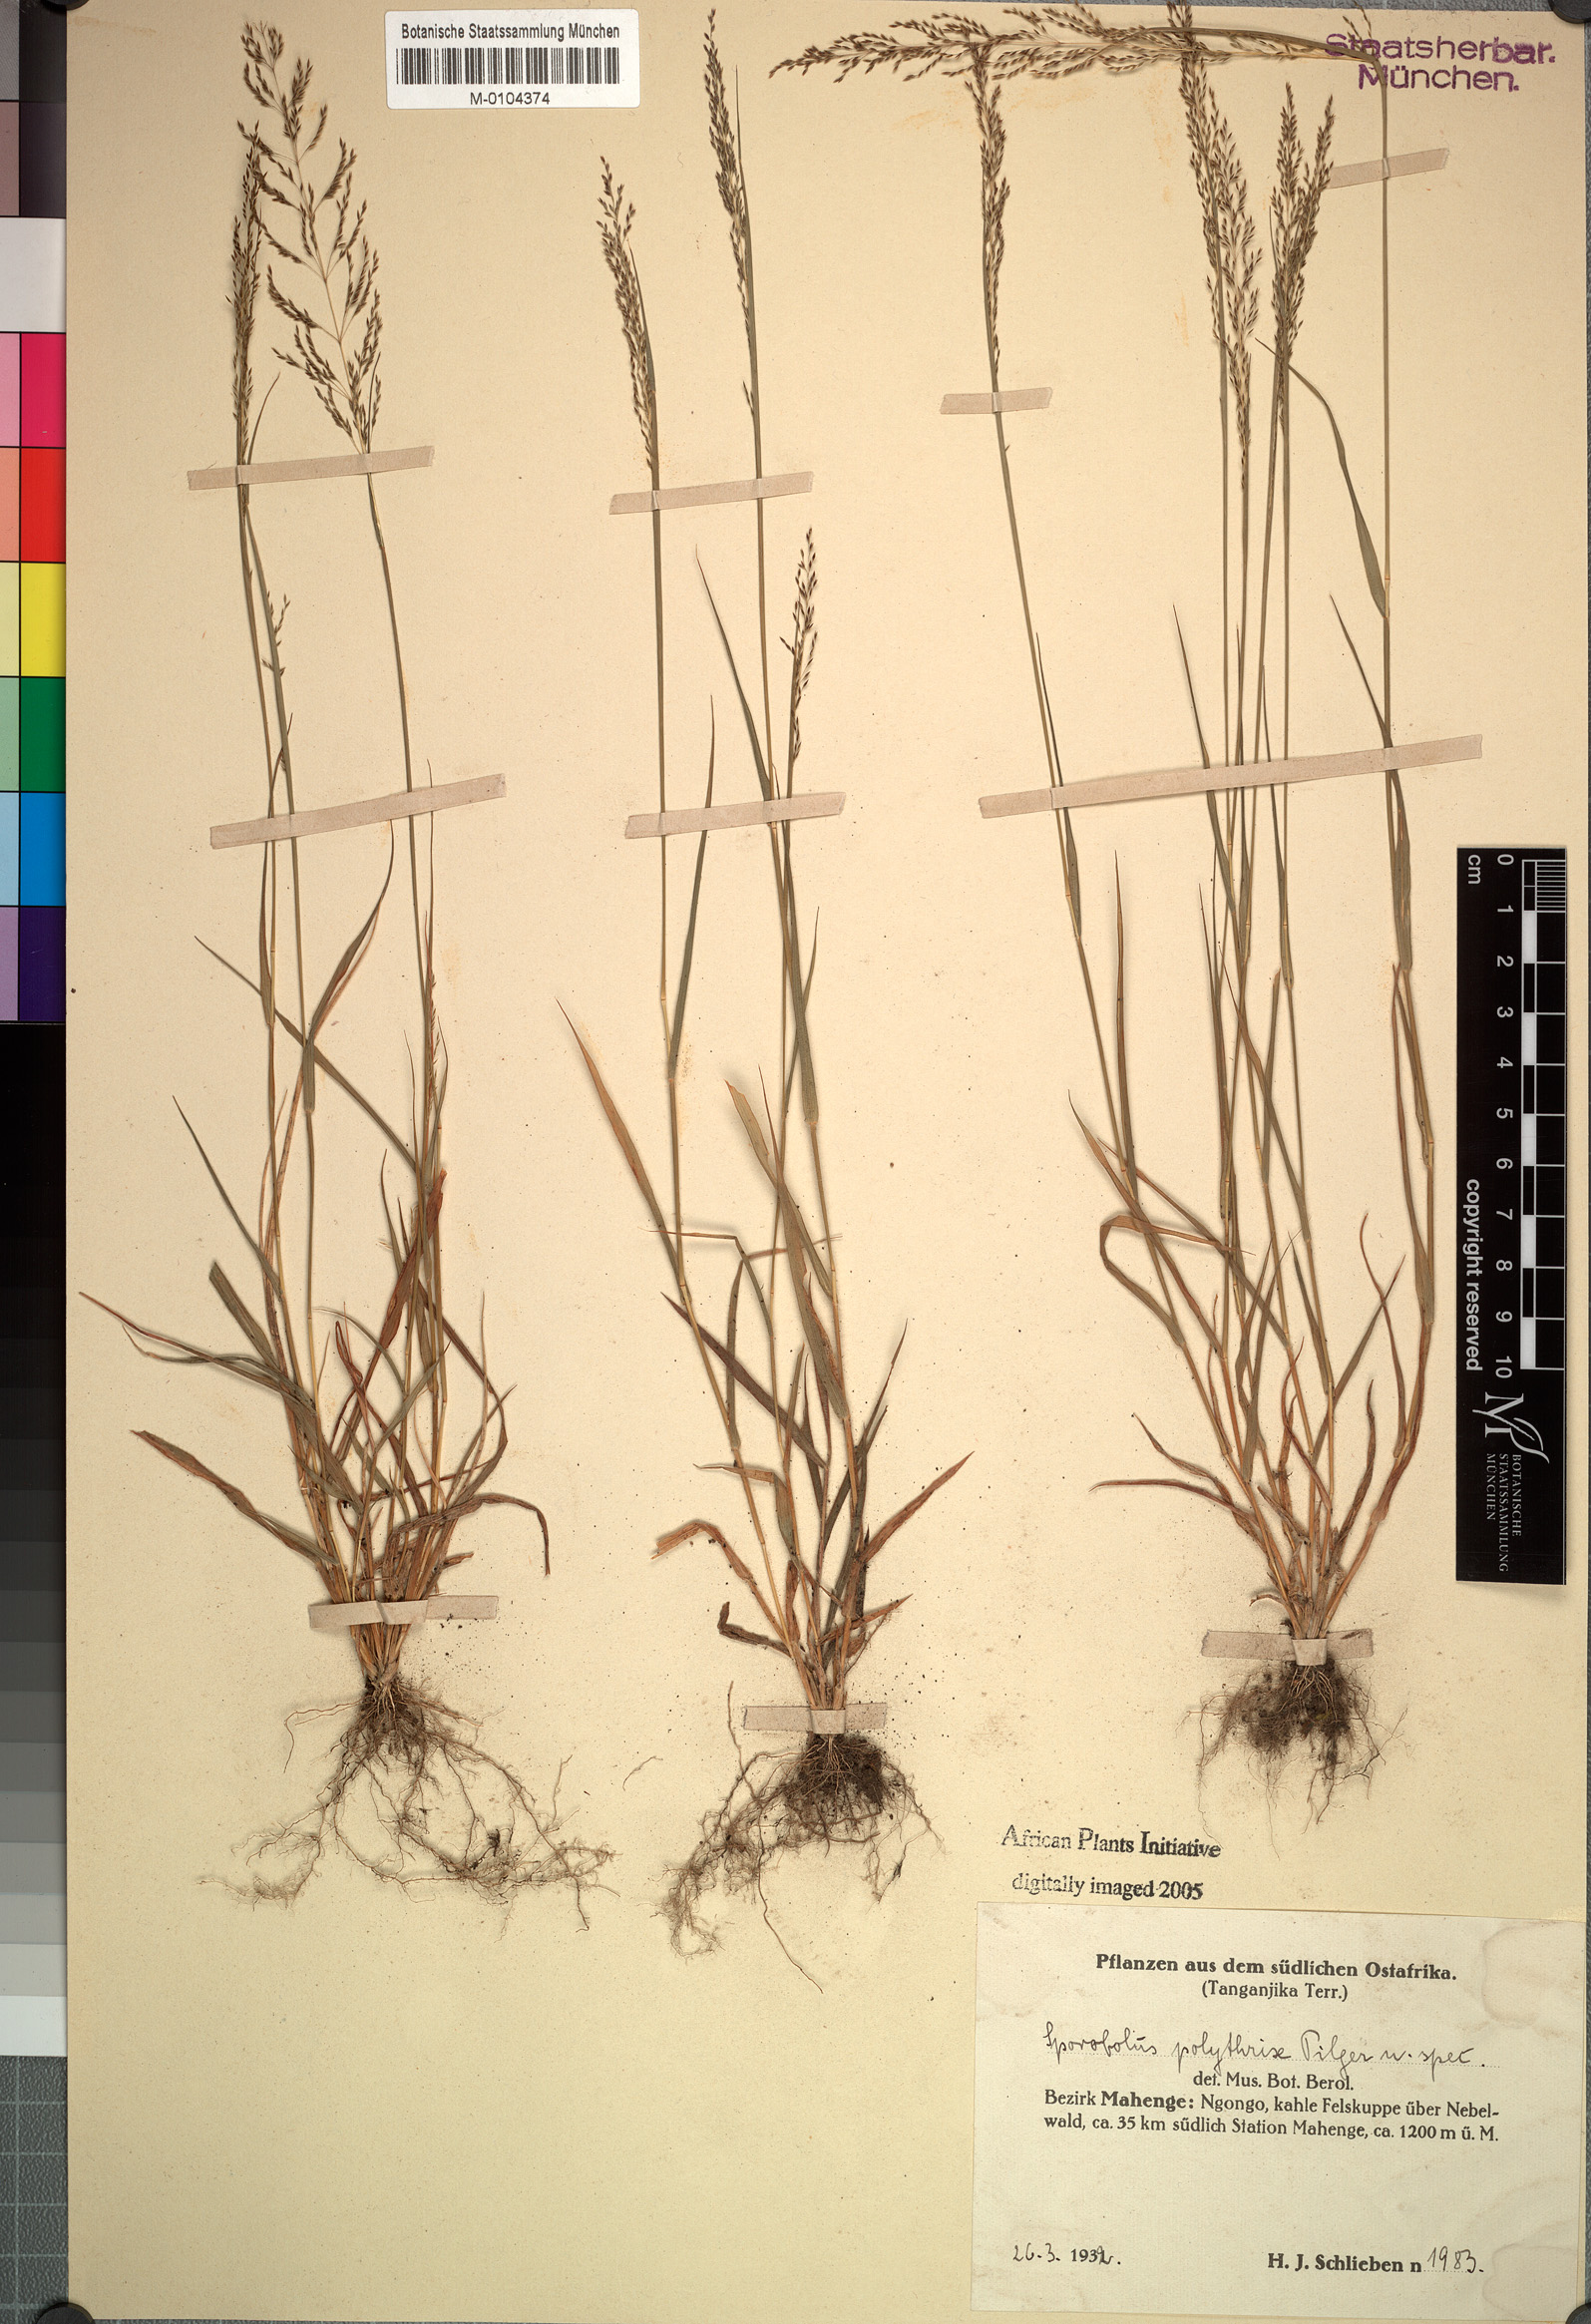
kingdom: Plantae
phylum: Tracheophyta
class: Liliopsida
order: Poales
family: Poaceae
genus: Sporobolus
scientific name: Sporobolus
